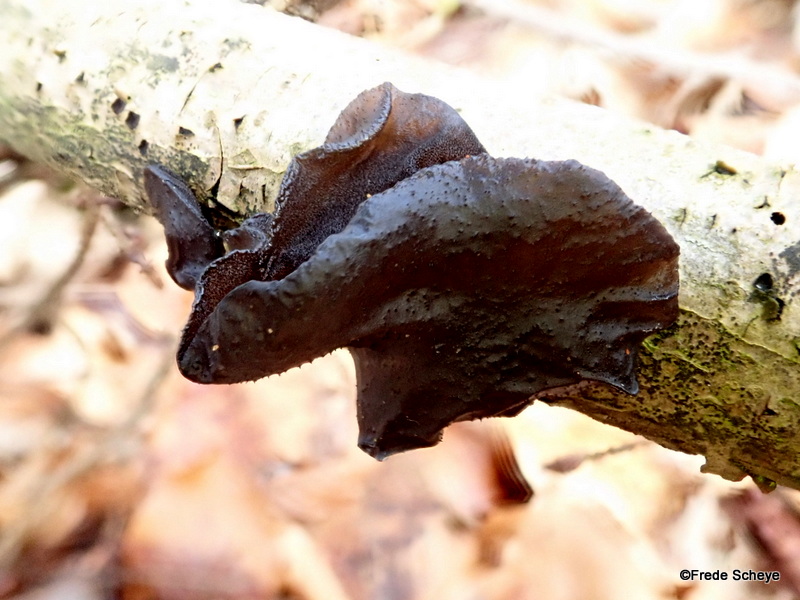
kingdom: Fungi
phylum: Basidiomycota
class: Agaricomycetes
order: Auriculariales
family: Auriculariaceae
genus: Exidia
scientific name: Exidia glandulosa
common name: ege-bævretop
